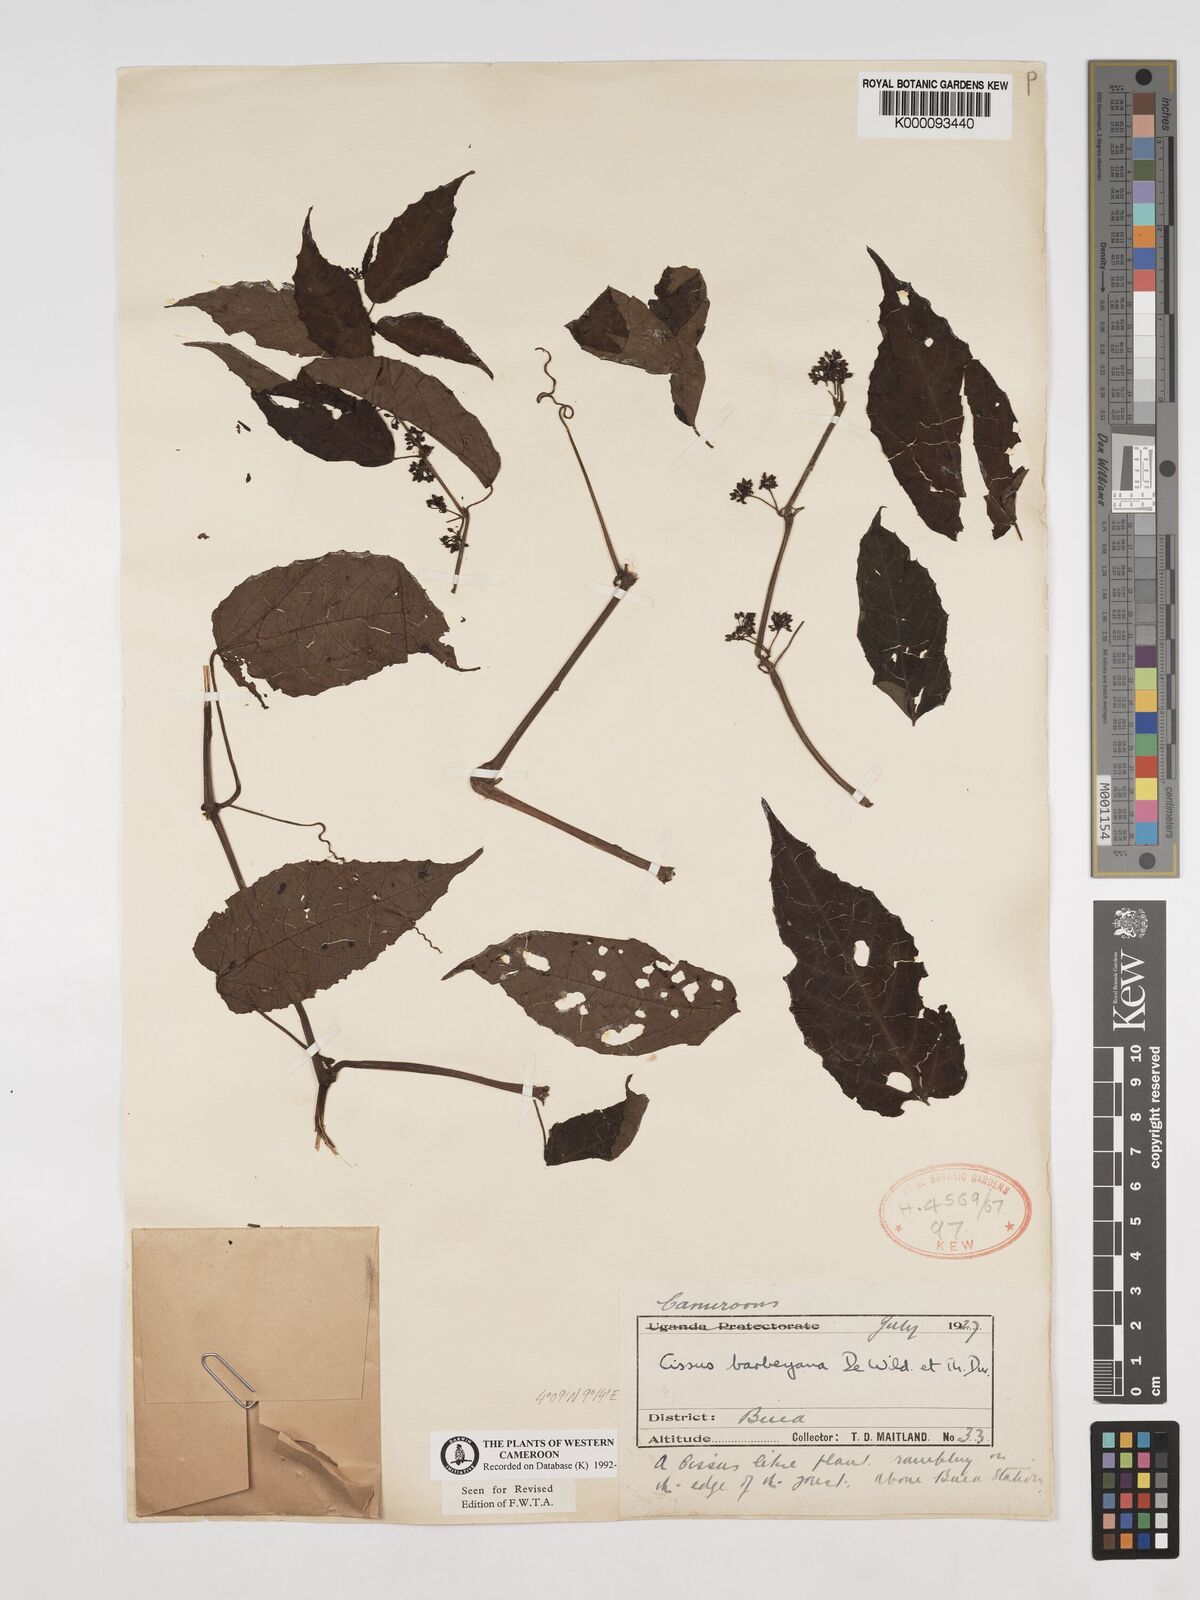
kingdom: Plantae
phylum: Tracheophyta
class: Magnoliopsida
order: Vitales
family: Vitaceae
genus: Cissus
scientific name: Cissus barbeyana
